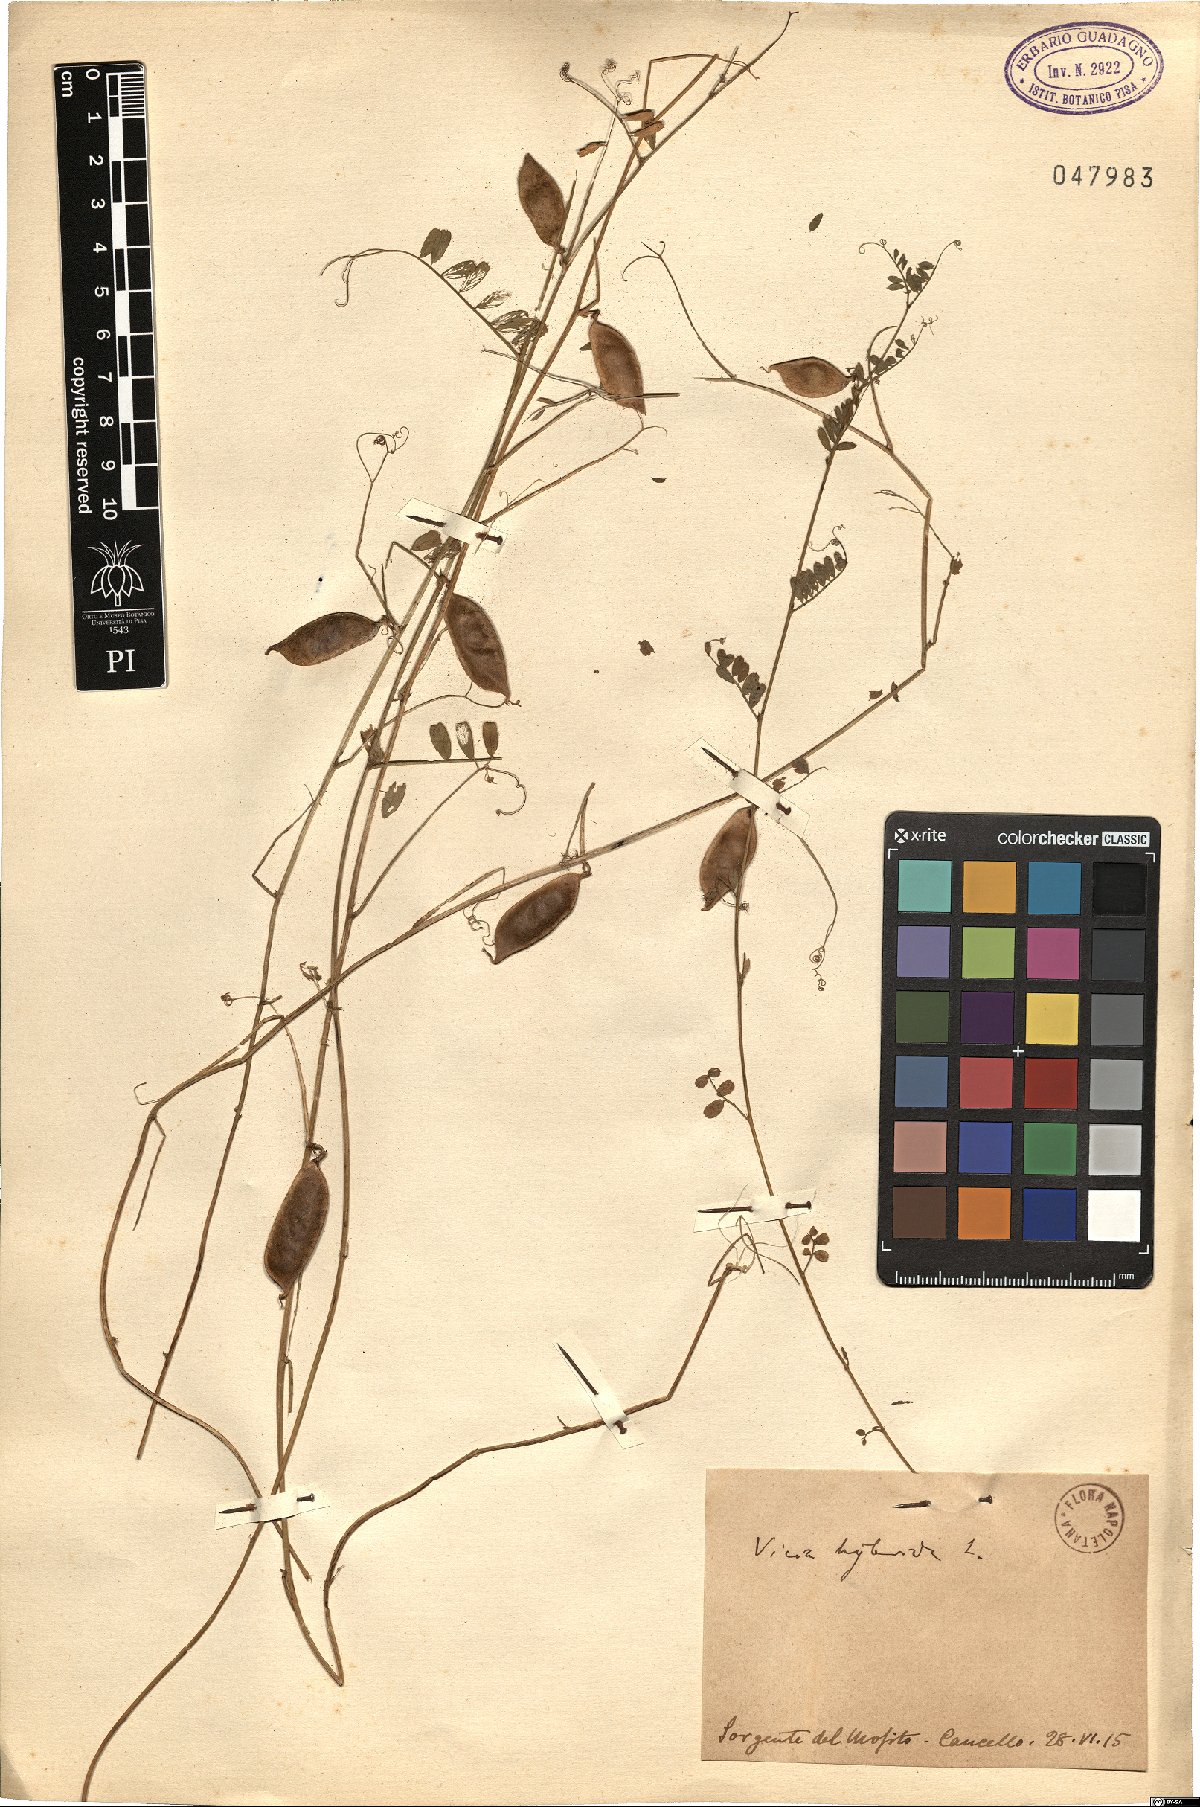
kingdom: Plantae
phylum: Tracheophyta
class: Magnoliopsida
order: Fabales
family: Fabaceae
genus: Vicia
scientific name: Vicia hybrida
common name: Hairy yellow vetch
